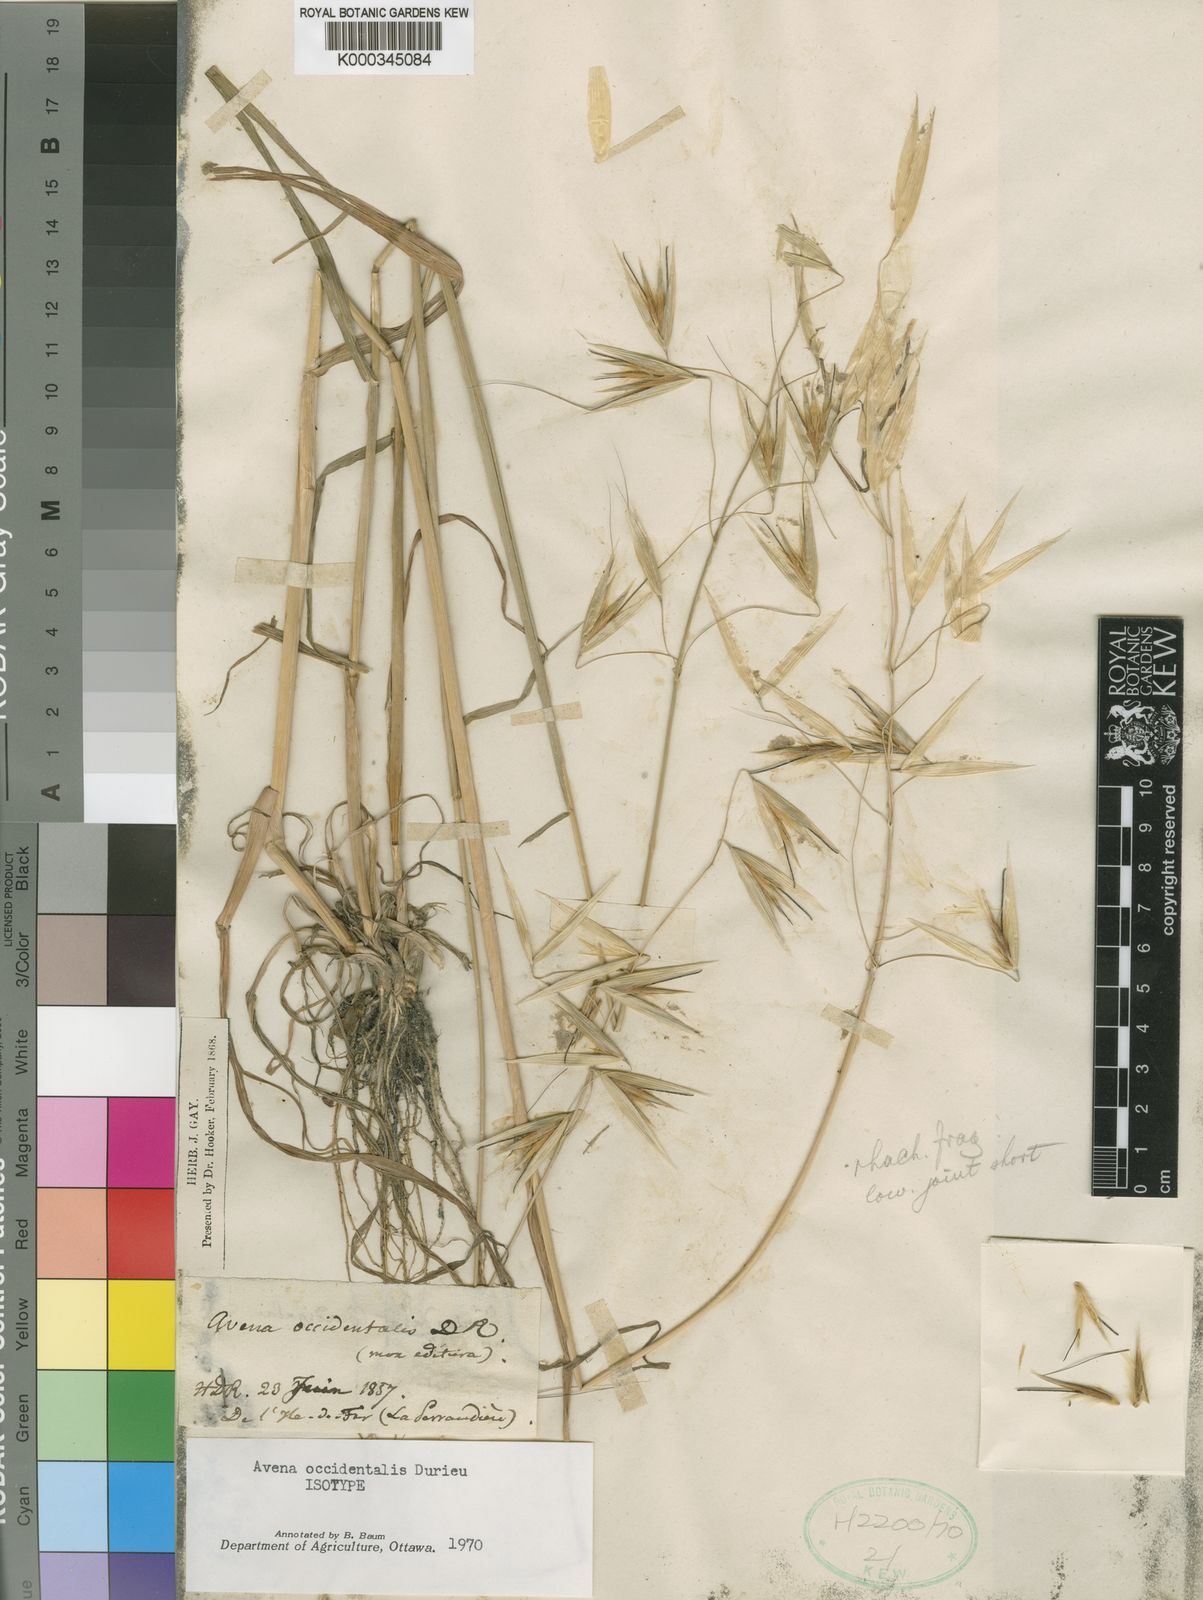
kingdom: Plantae
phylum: Tracheophyta
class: Liliopsida
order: Poales
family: Poaceae
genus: Avena
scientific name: Avena
